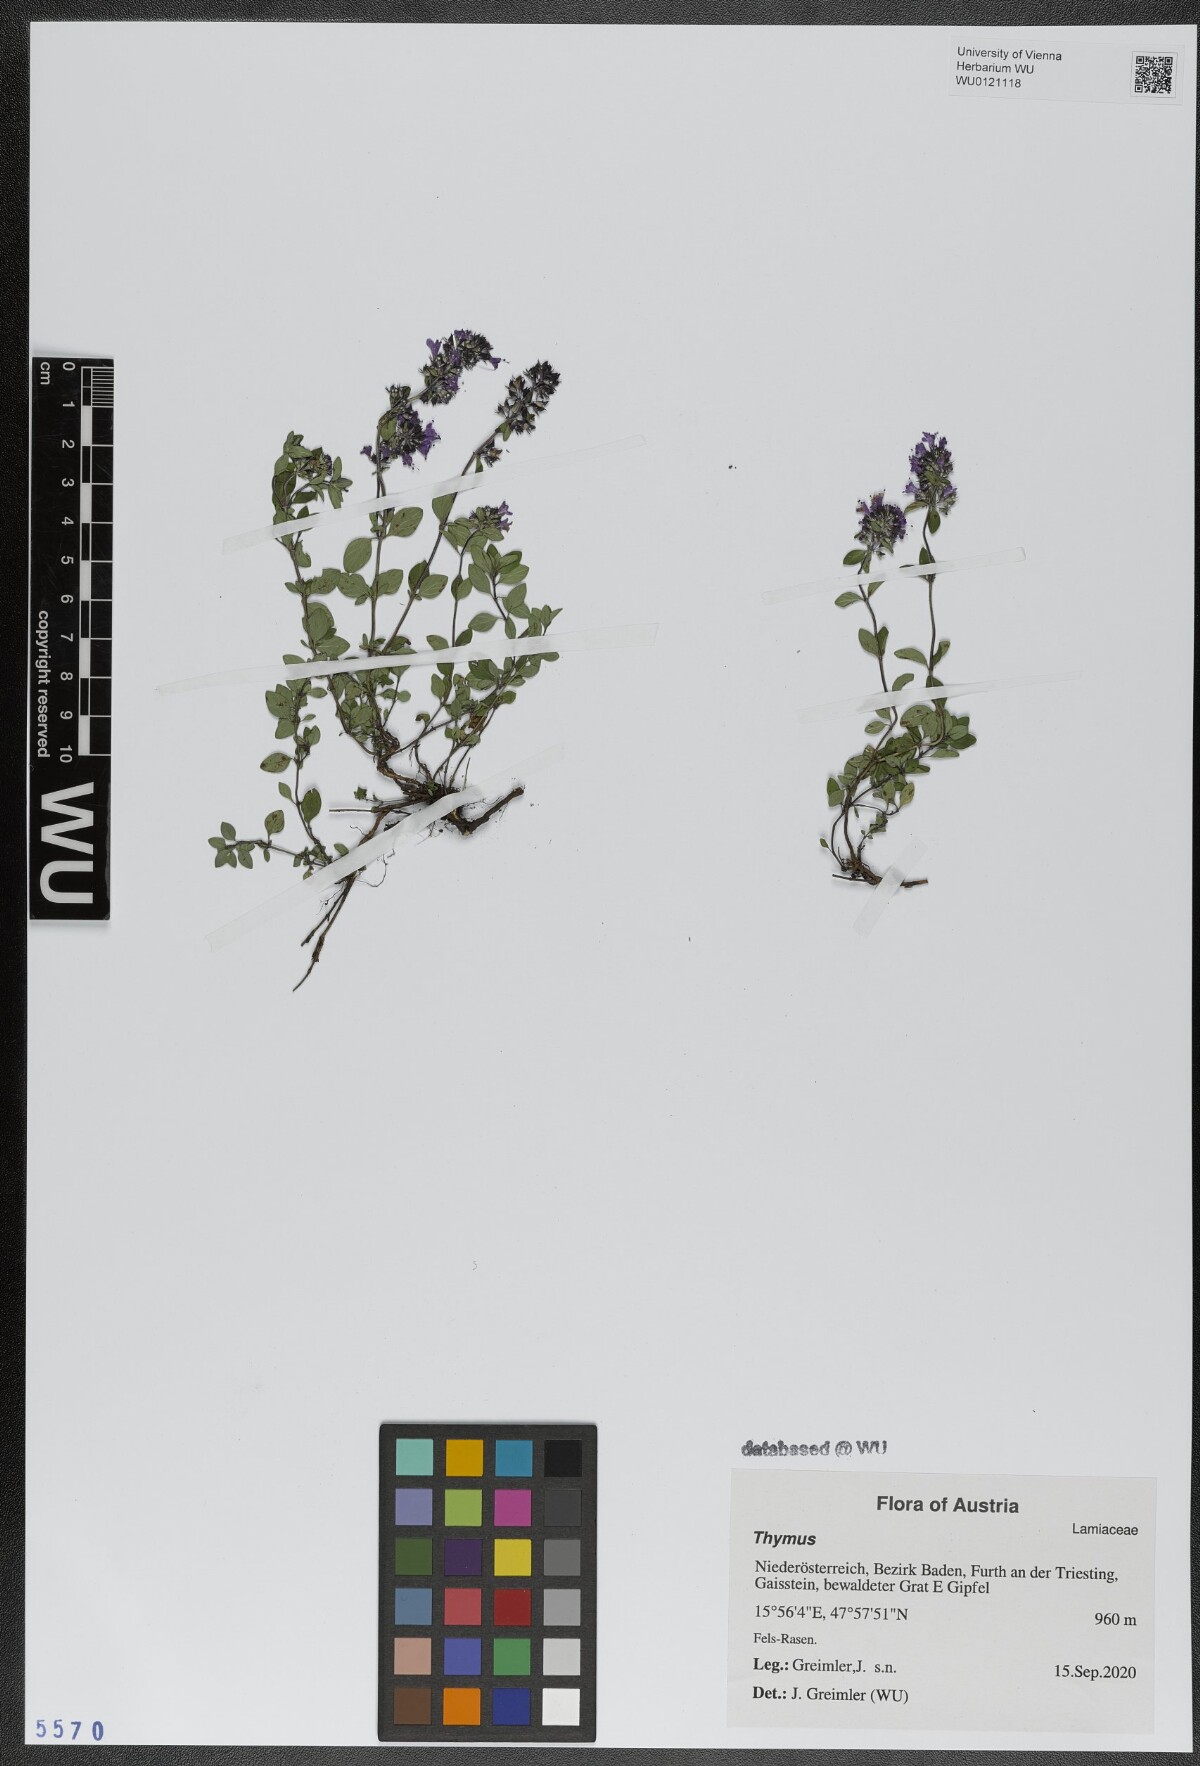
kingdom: Plantae
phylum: Tracheophyta
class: Magnoliopsida
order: Lamiales
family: Lamiaceae
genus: Thymus
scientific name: Thymus
